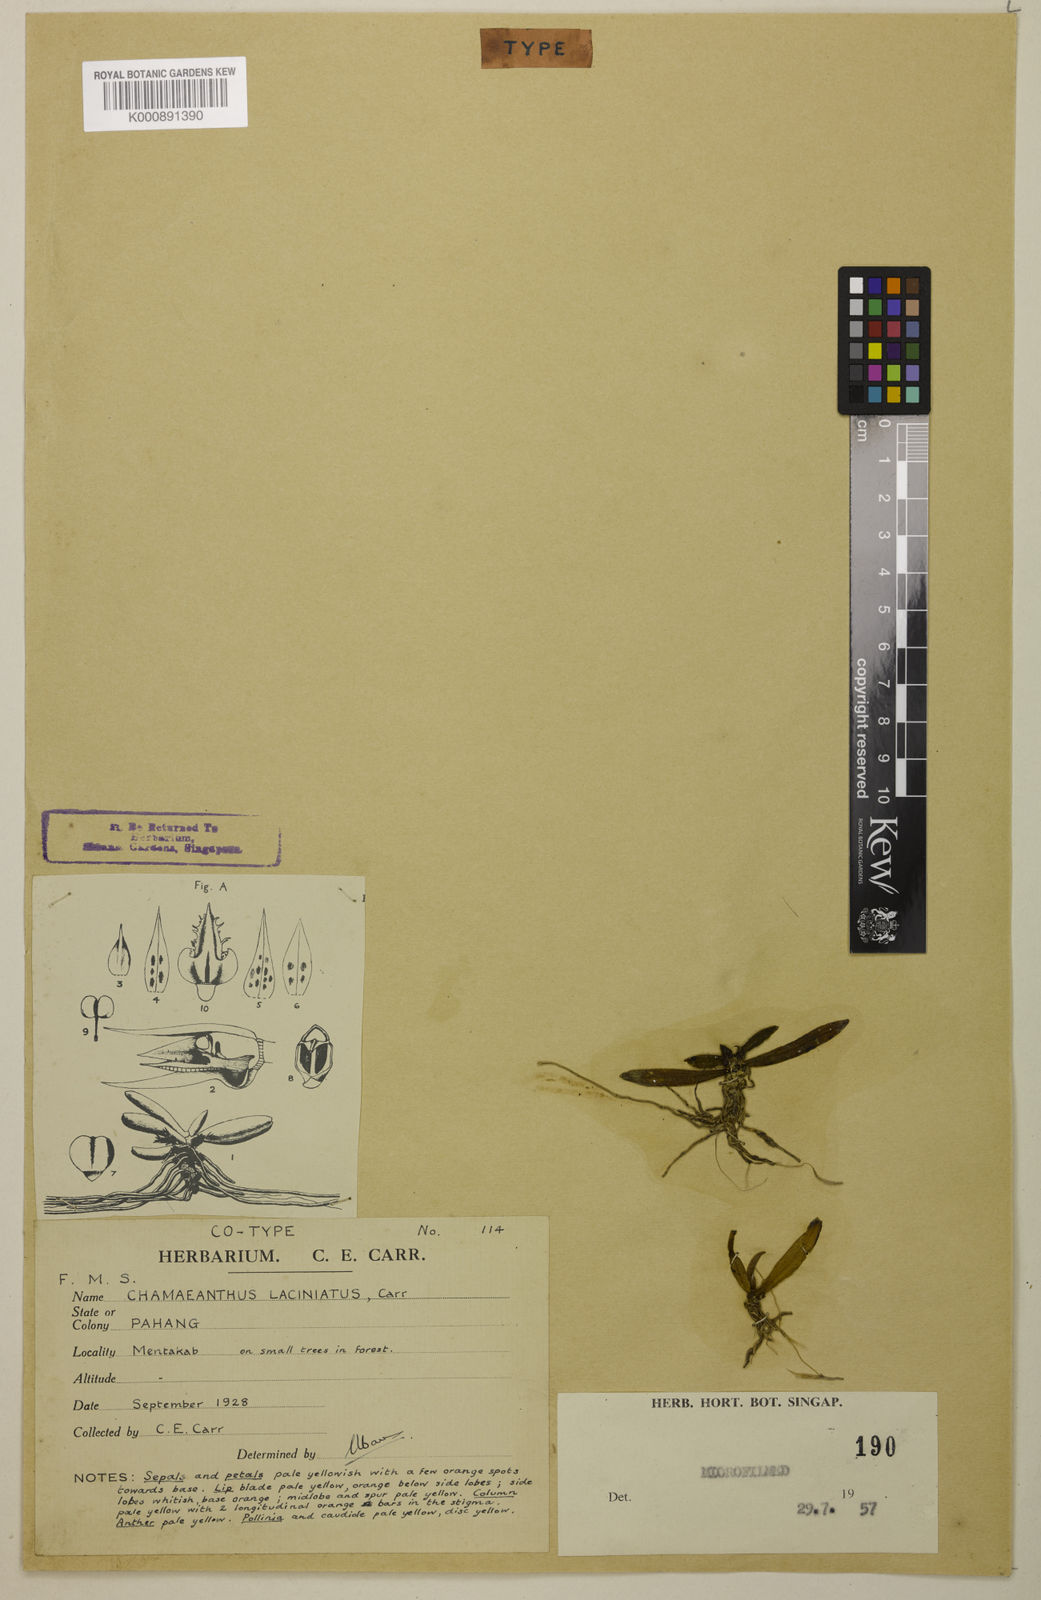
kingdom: Plantae
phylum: Tracheophyta
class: Liliopsida
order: Asparagales
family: Orchidaceae
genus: Biermannia
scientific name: Biermannia laciniata
